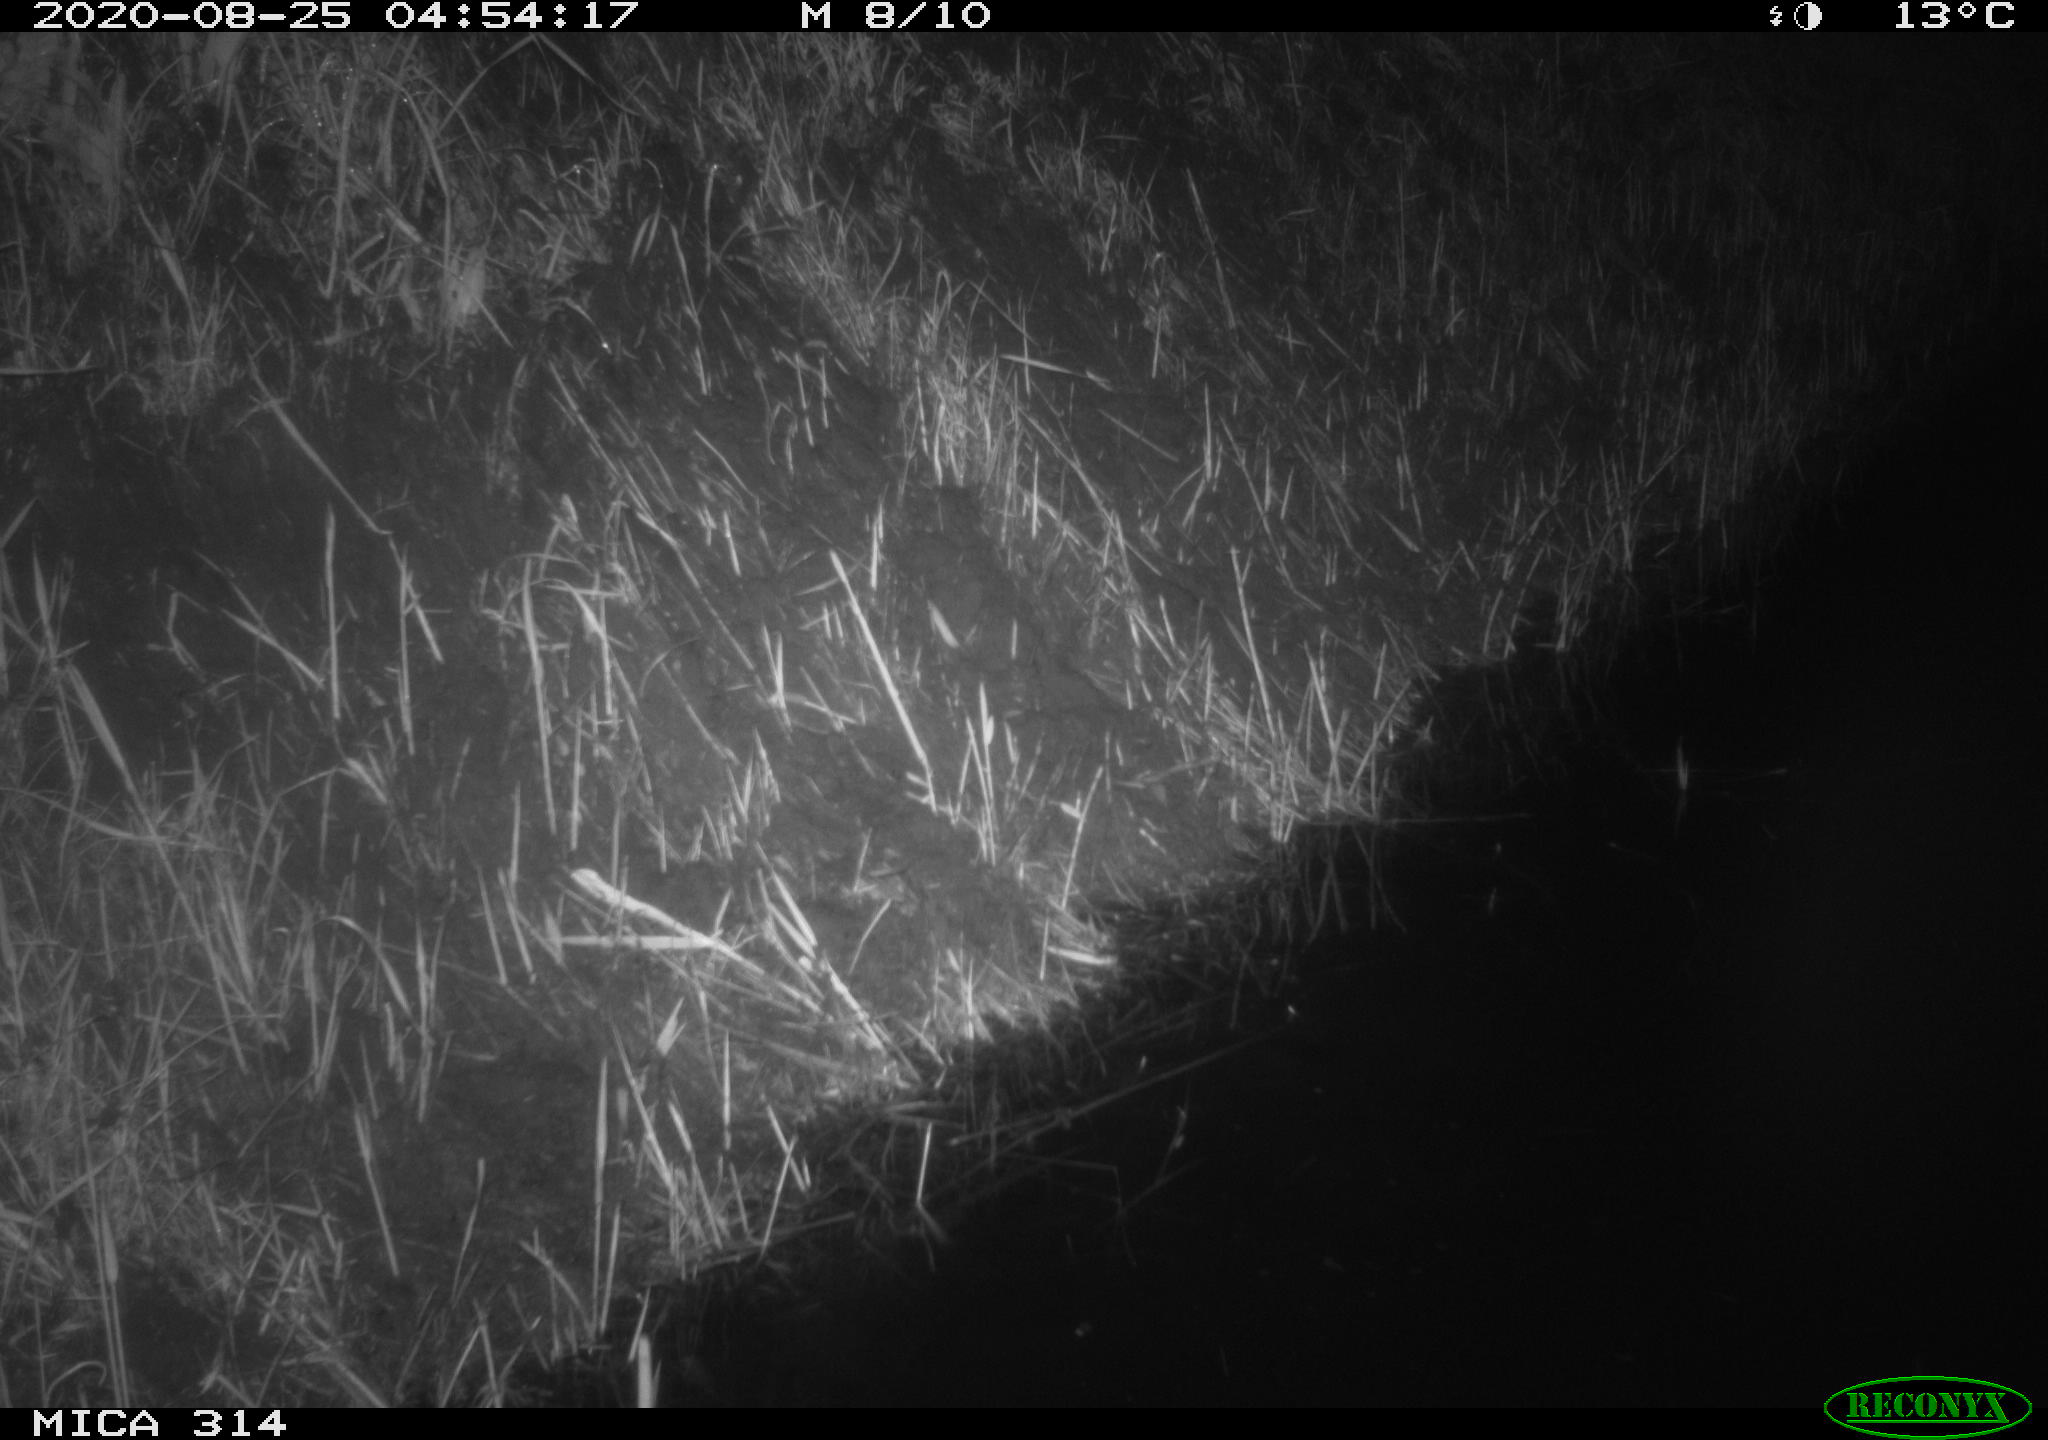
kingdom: Animalia
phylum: Chordata
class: Mammalia
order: Rodentia
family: Muridae
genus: Rattus
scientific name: Rattus norvegicus
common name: Brown rat
